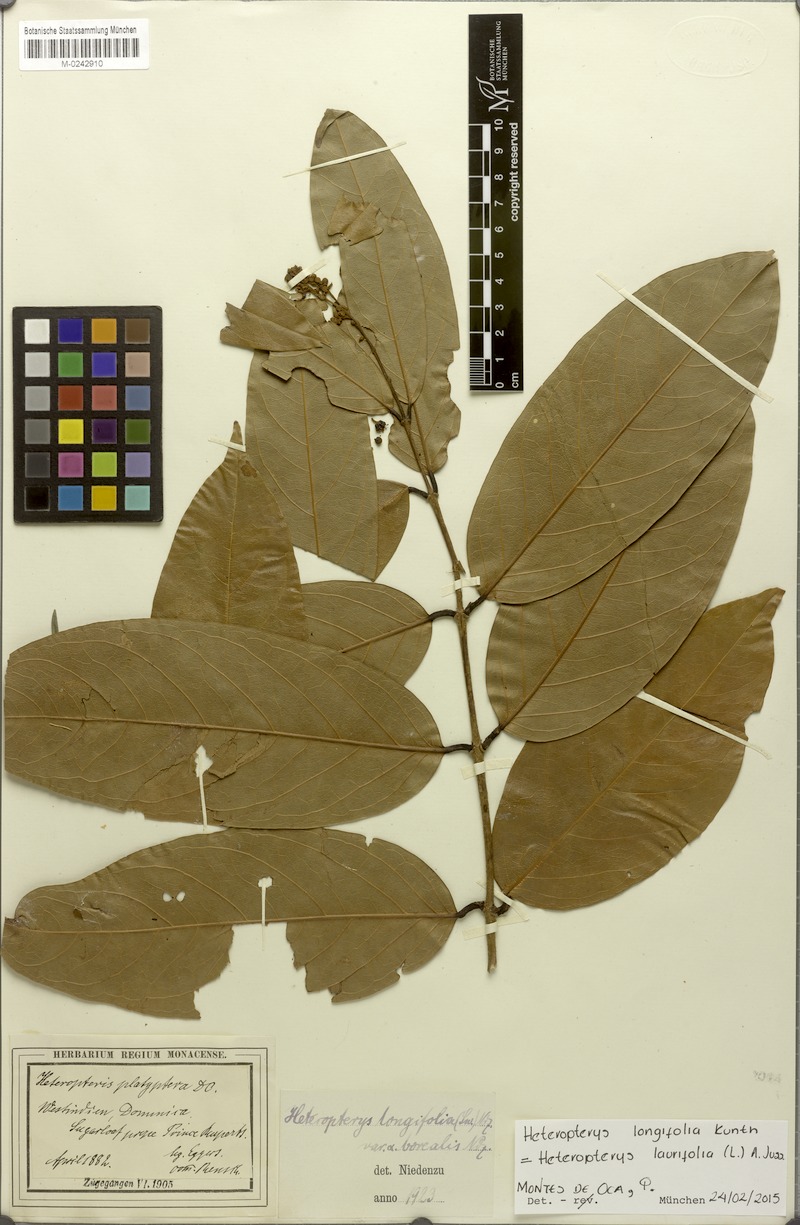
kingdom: Plantae
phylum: Tracheophyta
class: Magnoliopsida
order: Malpighiales
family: Malpighiaceae
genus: Heteropterys
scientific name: Heteropterys laurifolia
